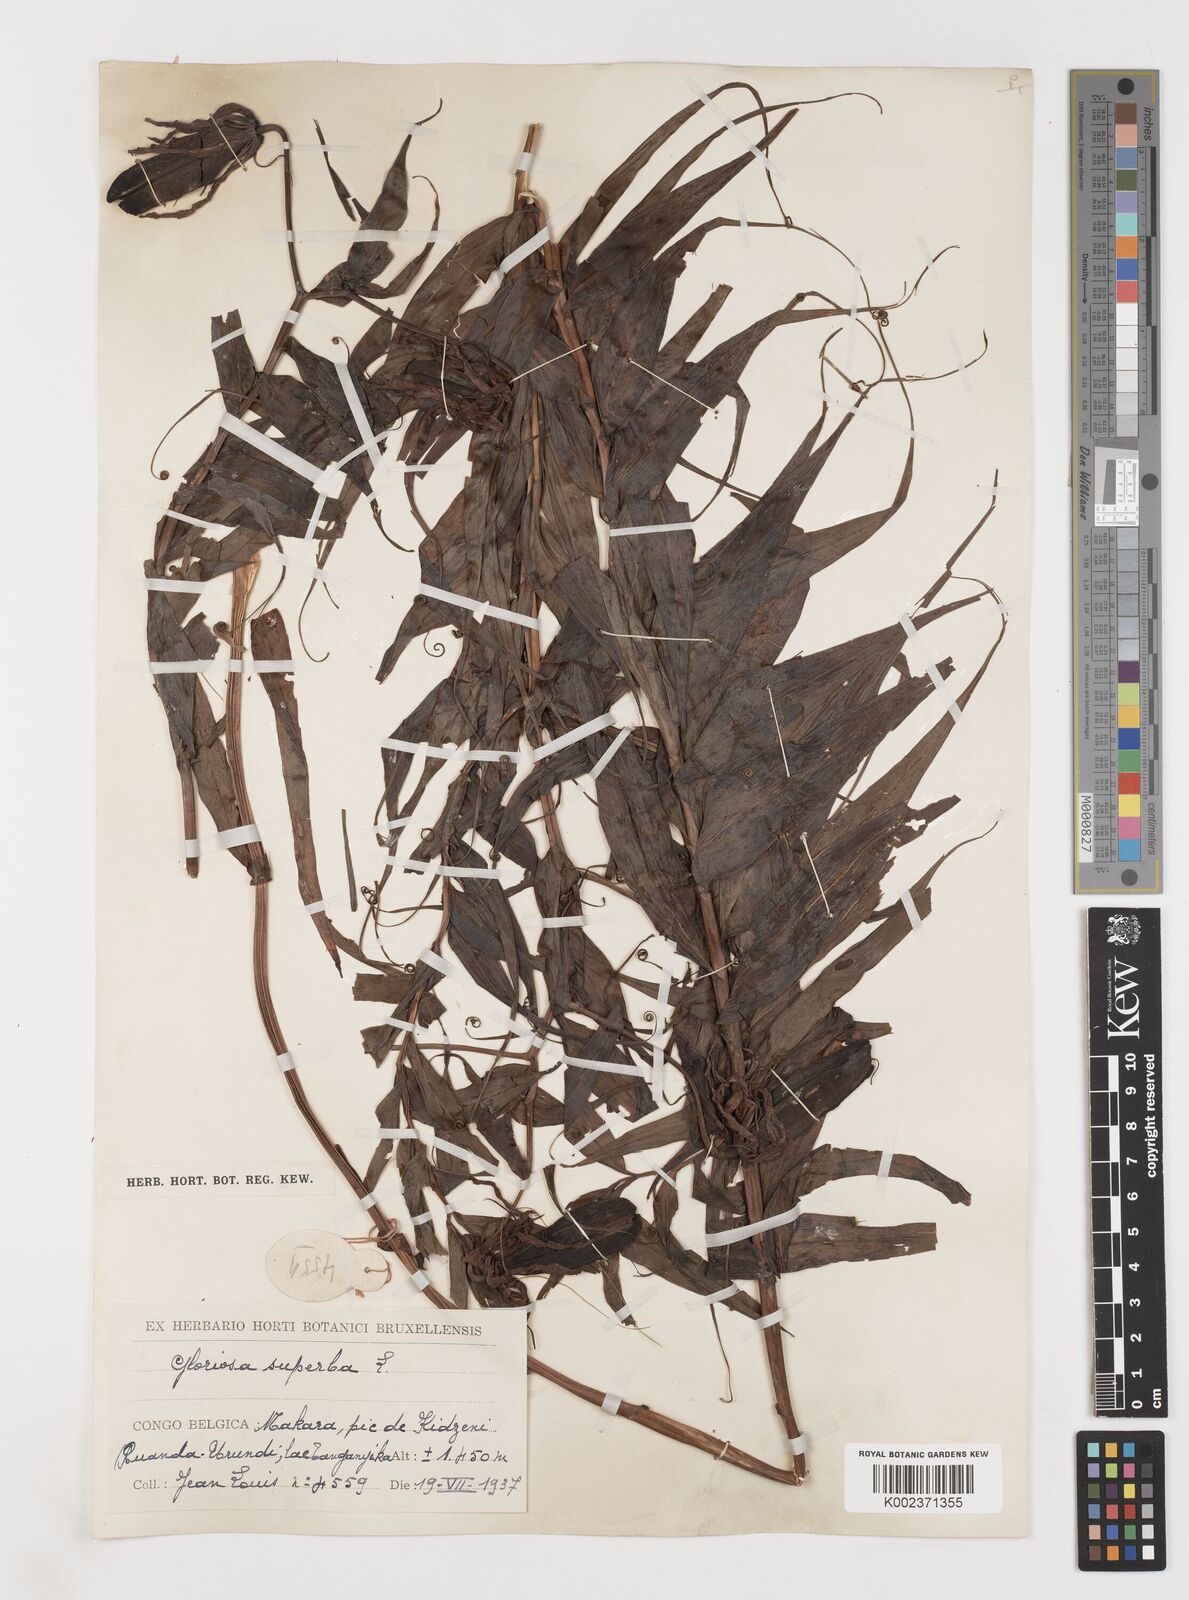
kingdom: Plantae
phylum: Tracheophyta
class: Liliopsida
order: Liliales
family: Colchicaceae
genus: Gloriosa
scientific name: Gloriosa superba
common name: Flame lily
